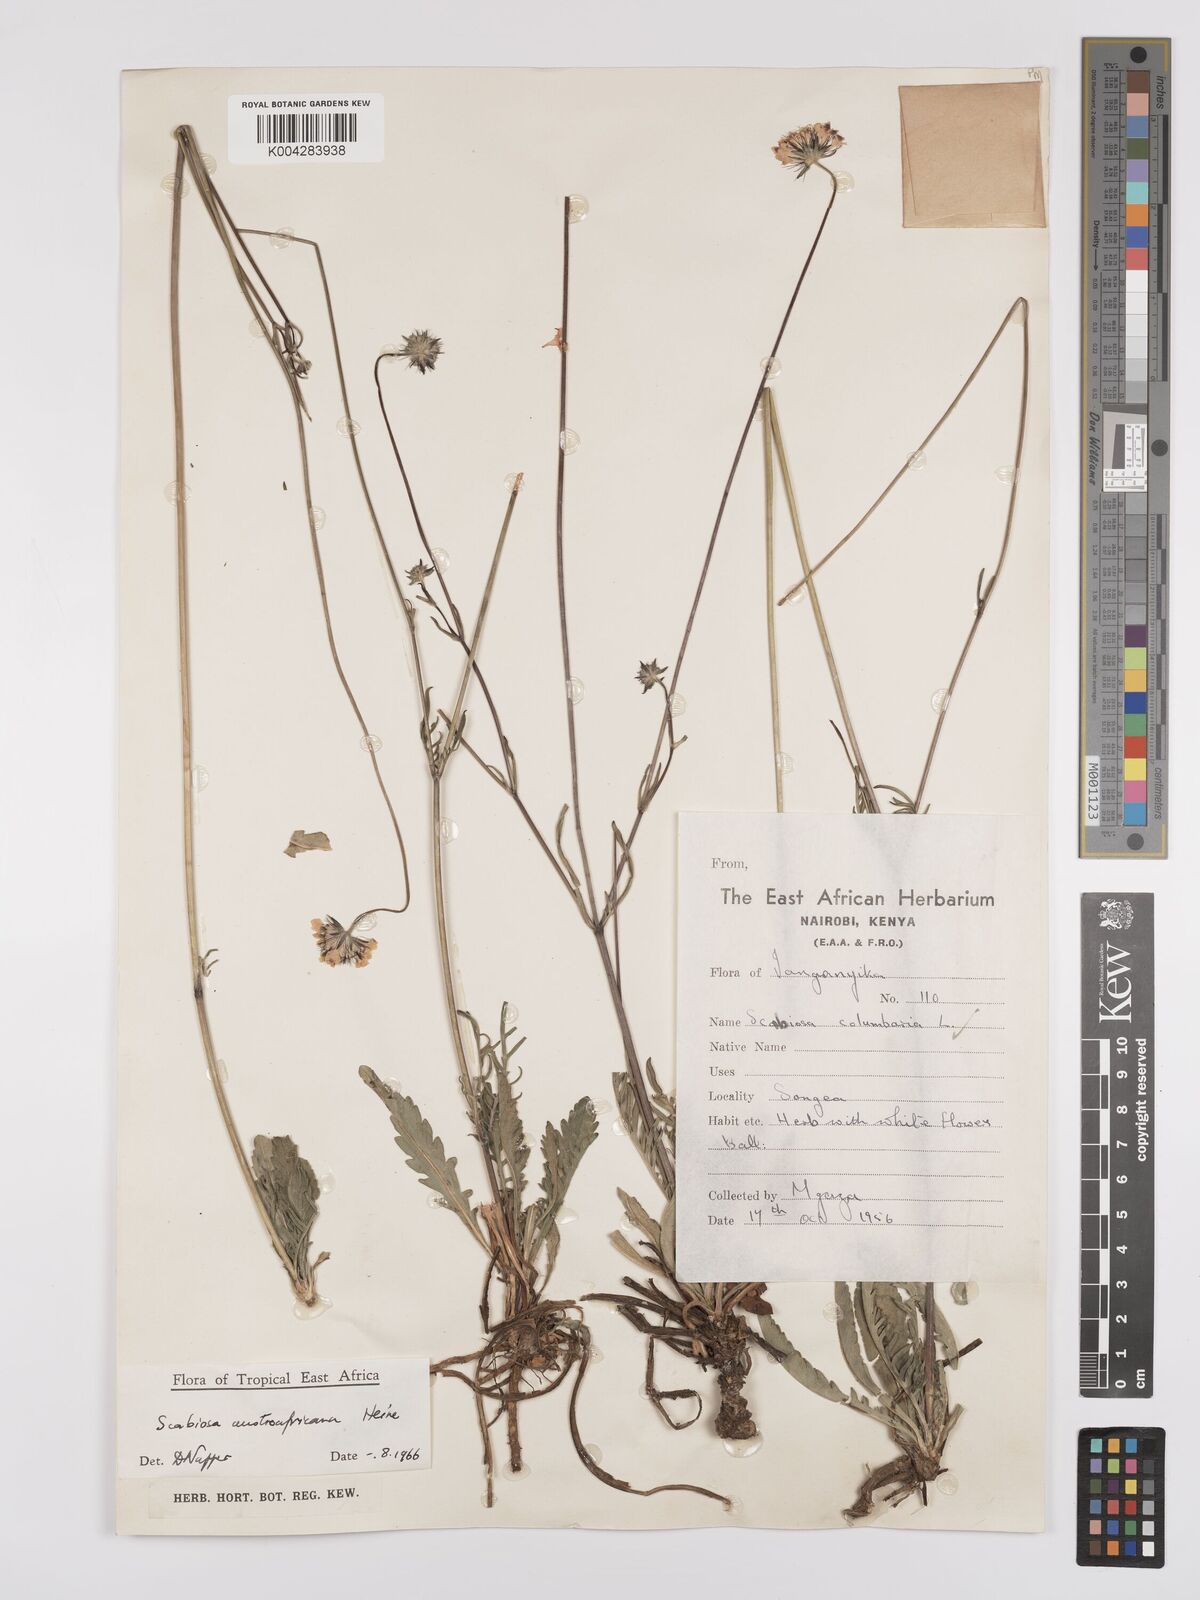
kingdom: Plantae
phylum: Tracheophyta
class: Magnoliopsida
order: Dipsacales
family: Caprifoliaceae
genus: Scabiosa
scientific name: Scabiosa austroafricana
